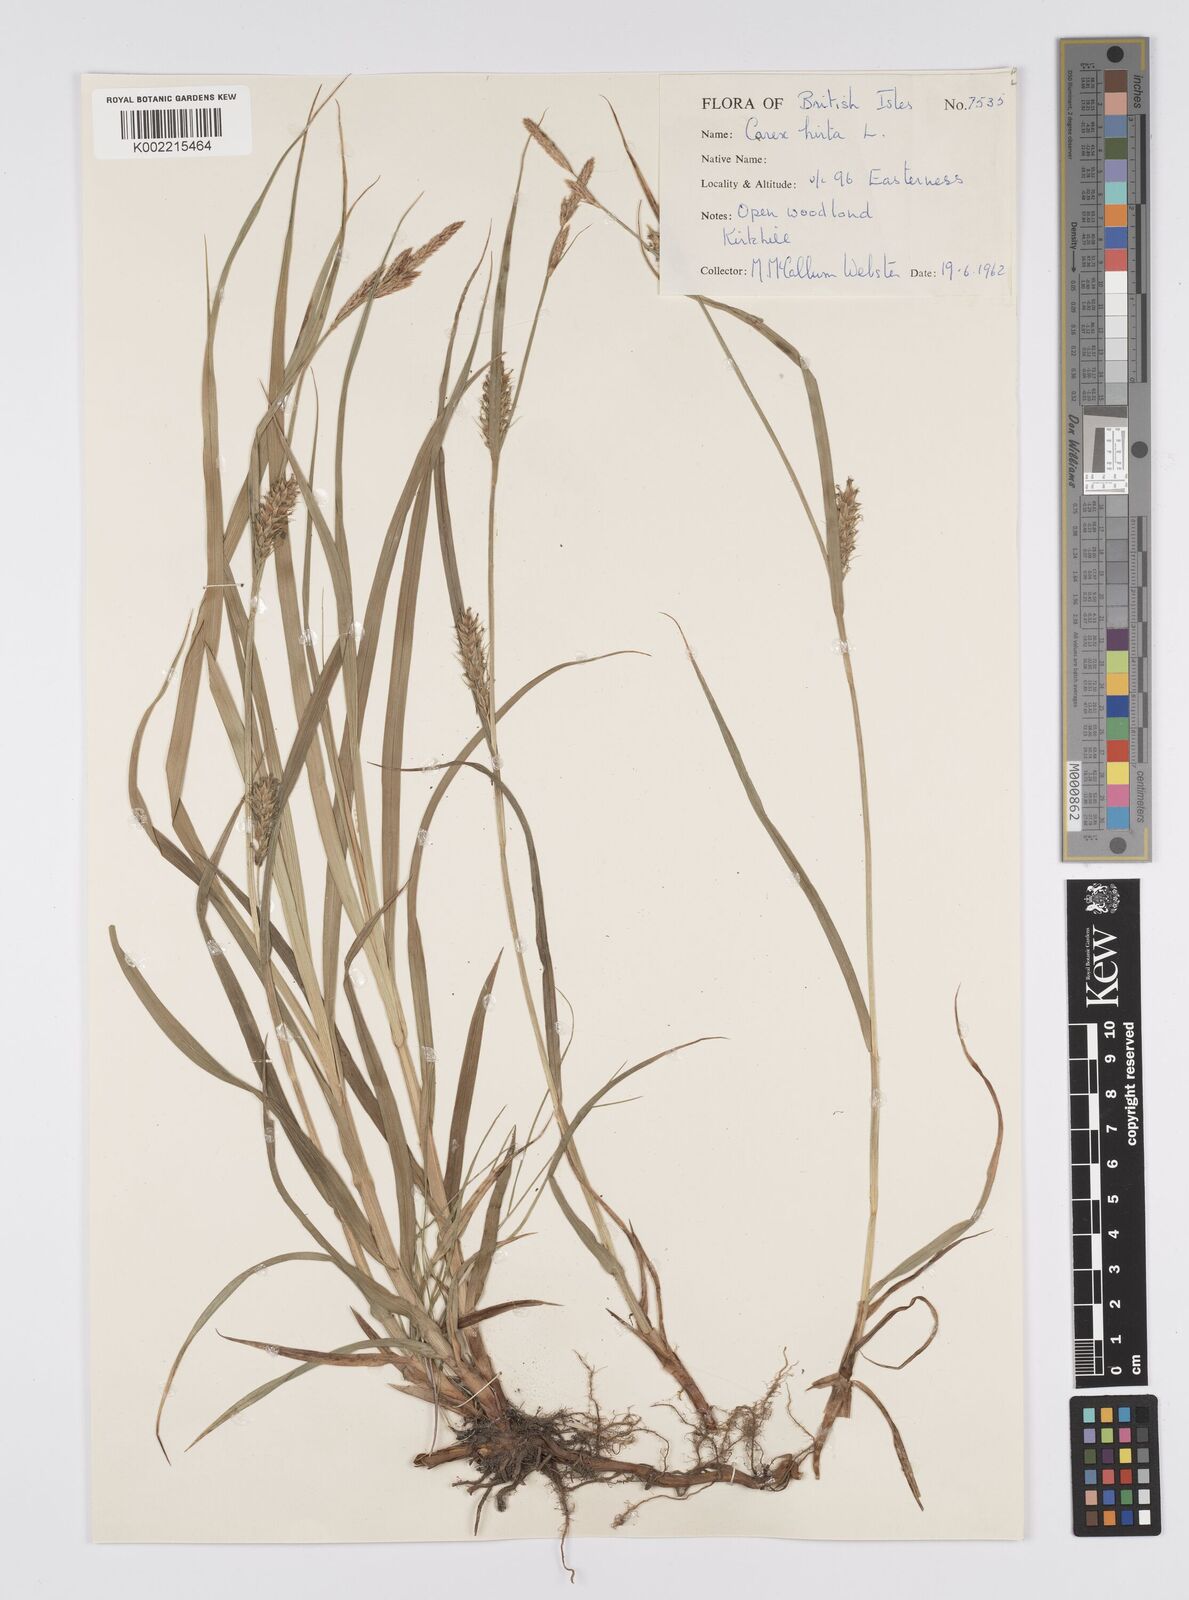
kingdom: Plantae
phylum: Tracheophyta
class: Liliopsida
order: Poales
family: Cyperaceae
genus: Carex
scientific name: Carex hirta
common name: Hairy sedge
